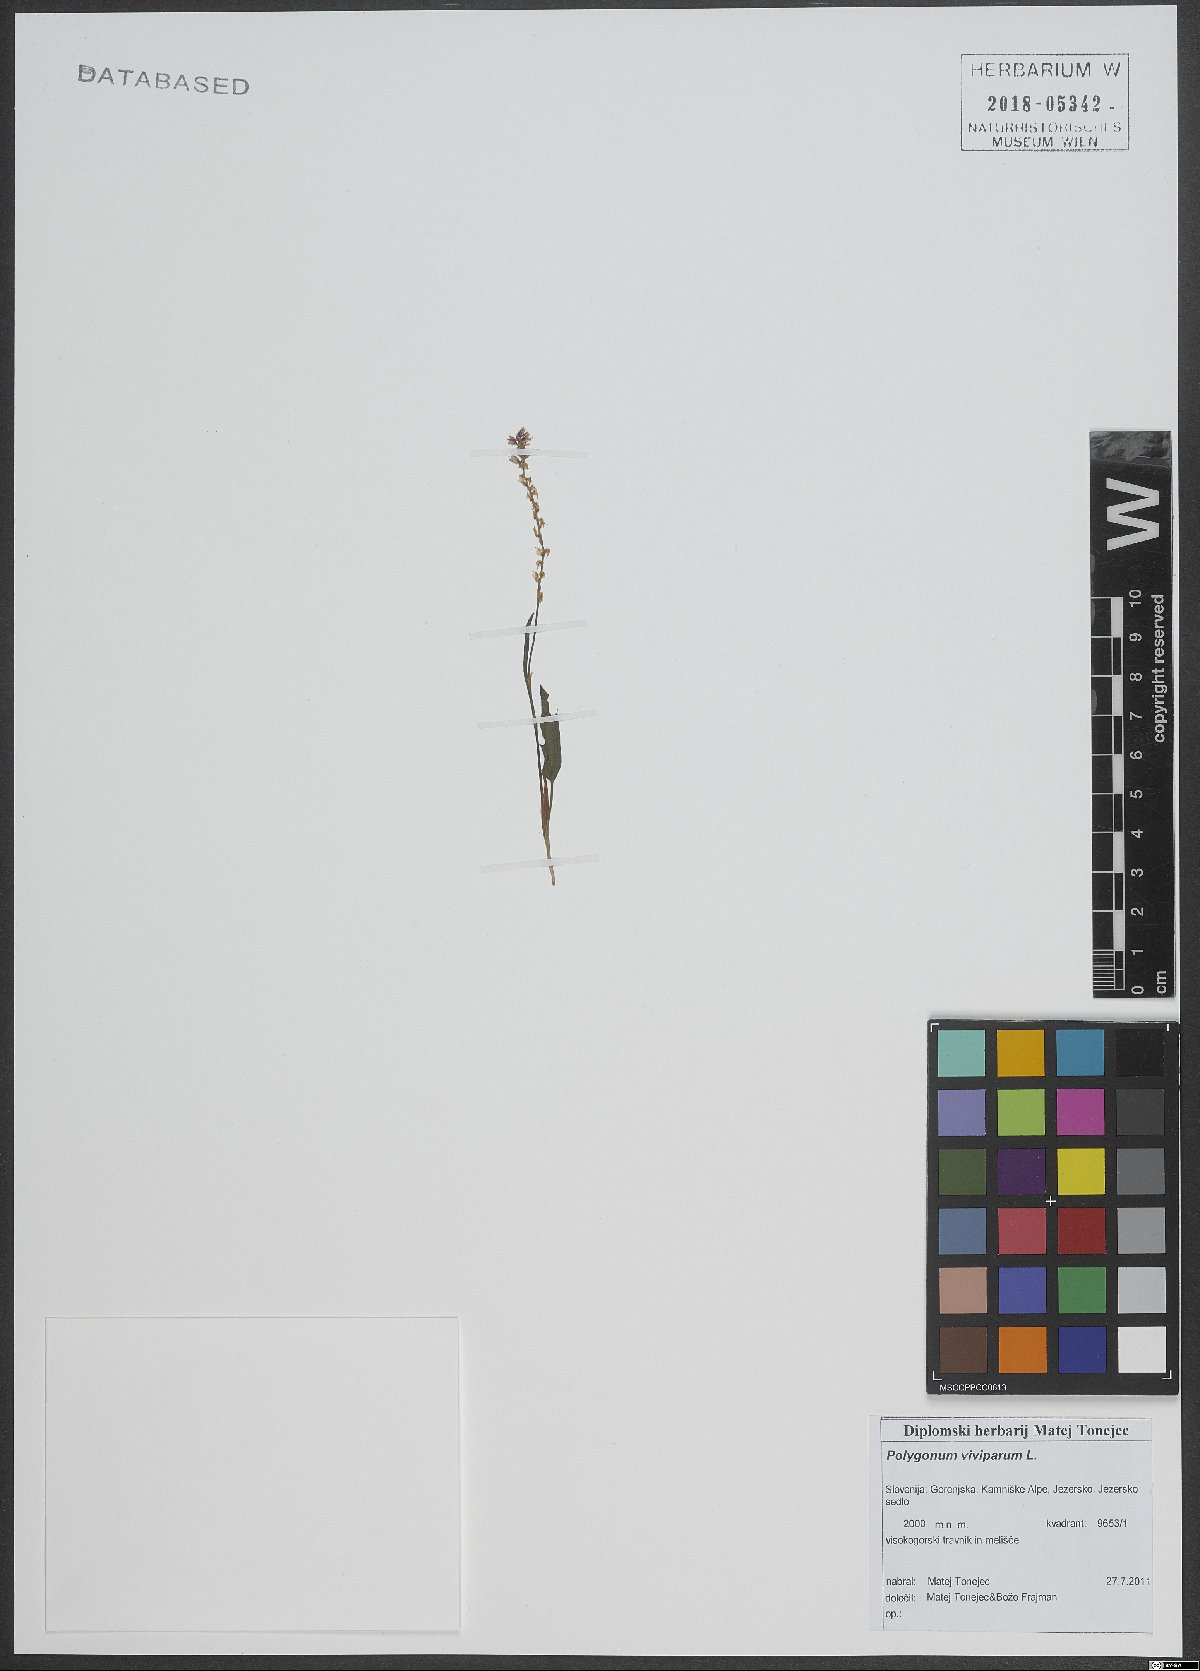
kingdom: Plantae
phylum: Tracheophyta
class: Magnoliopsida
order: Caryophyllales
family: Polygonaceae
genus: Bistorta
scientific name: Bistorta vivipara
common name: Alpine bistort
